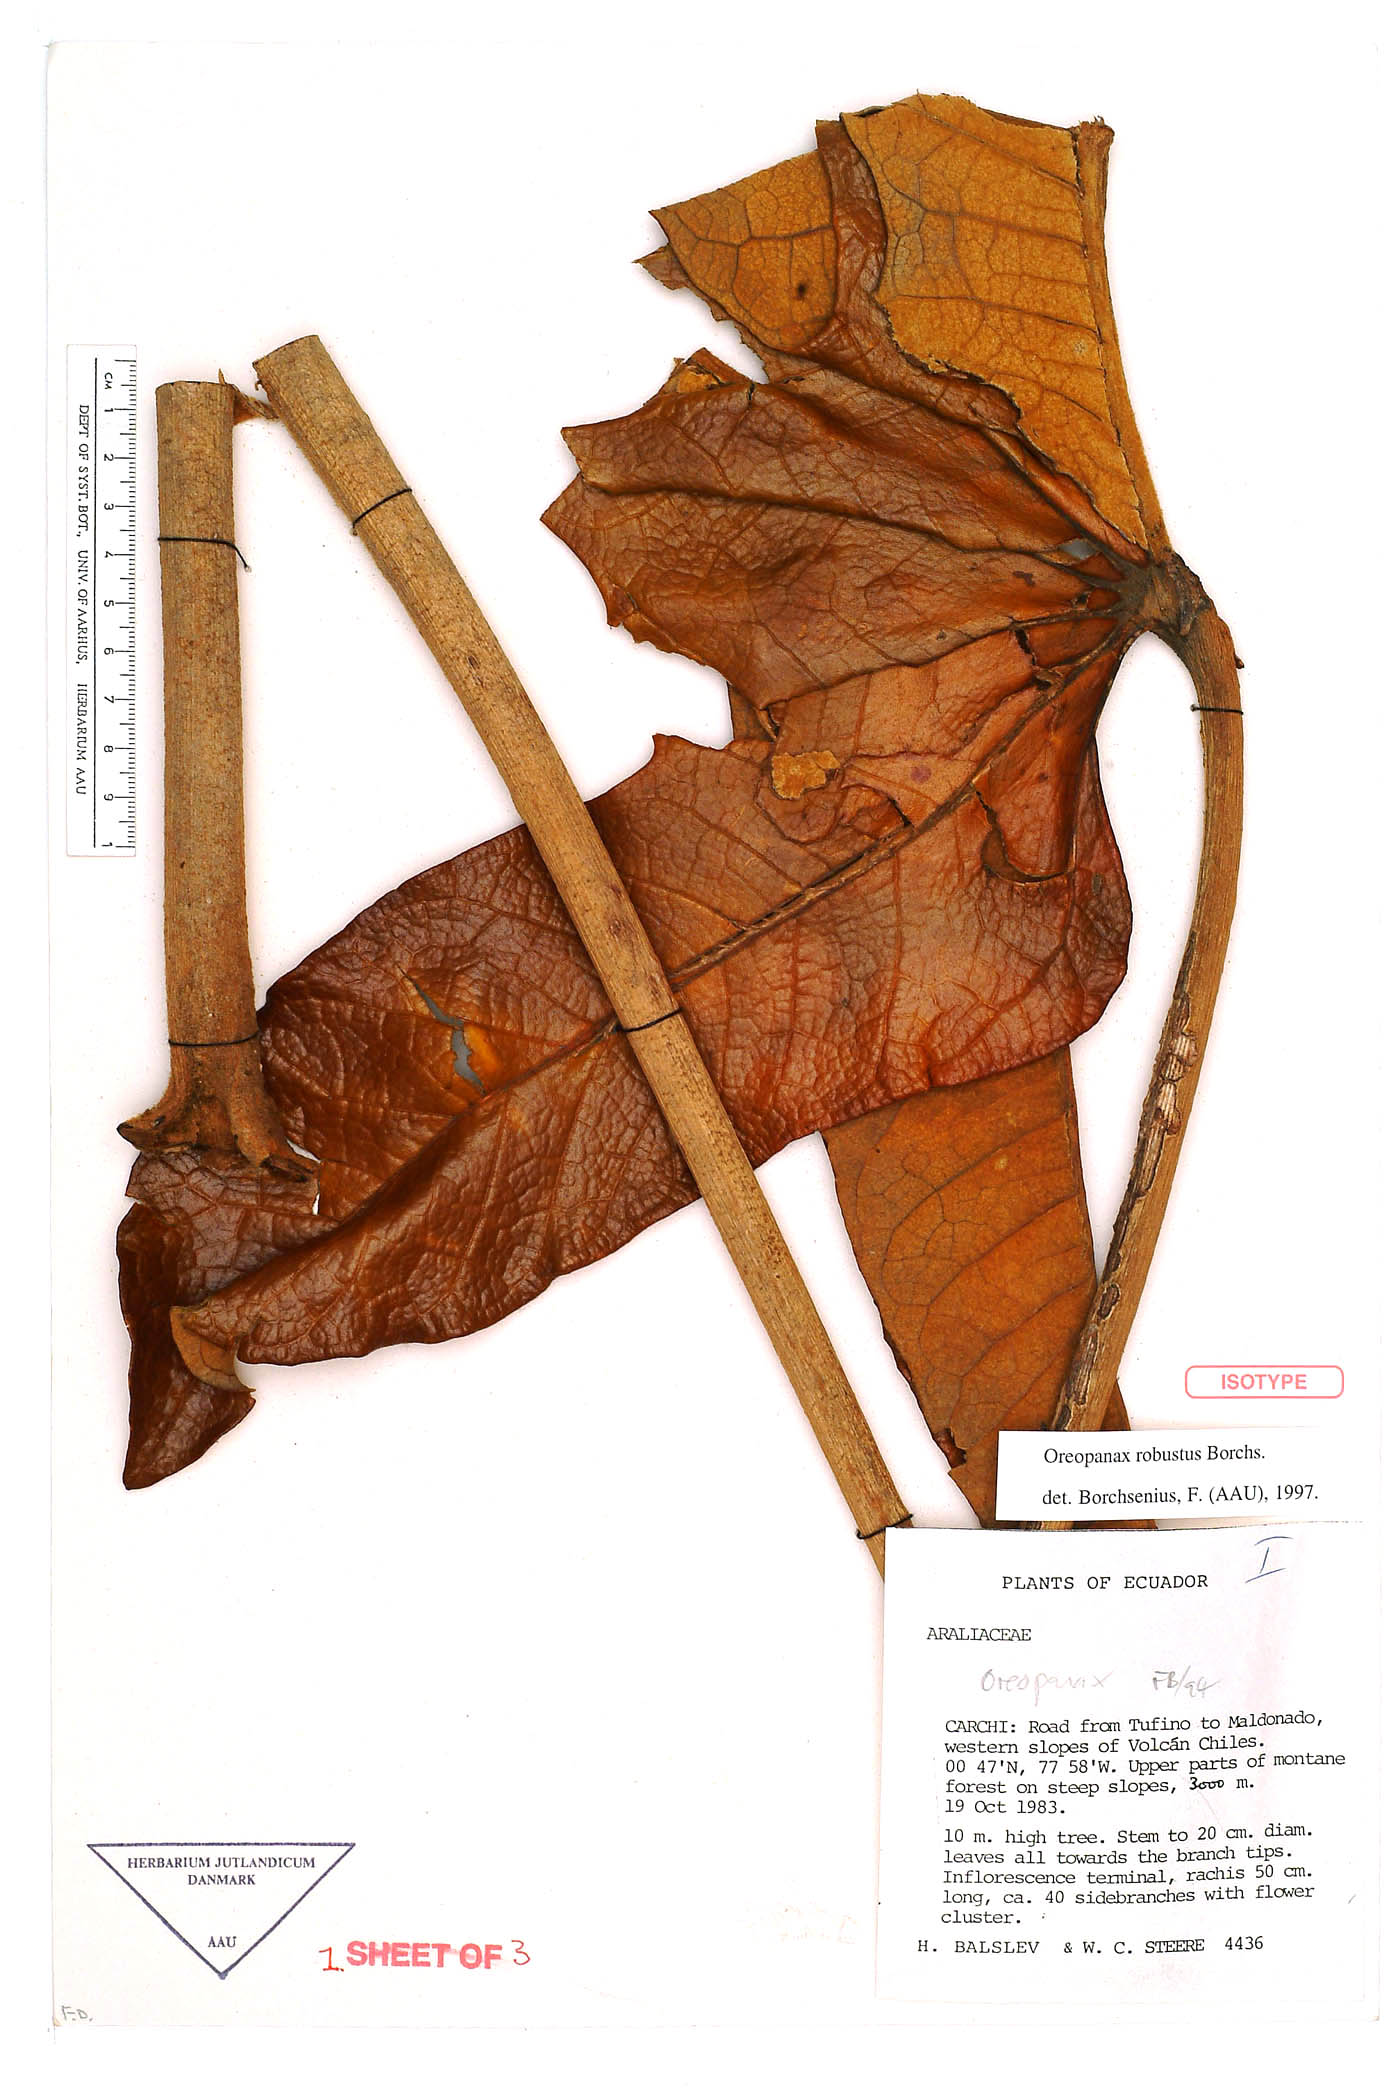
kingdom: Plantae
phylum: Tracheophyta
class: Magnoliopsida
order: Apiales
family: Araliaceae
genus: Oreopanax
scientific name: Oreopanax robustus
